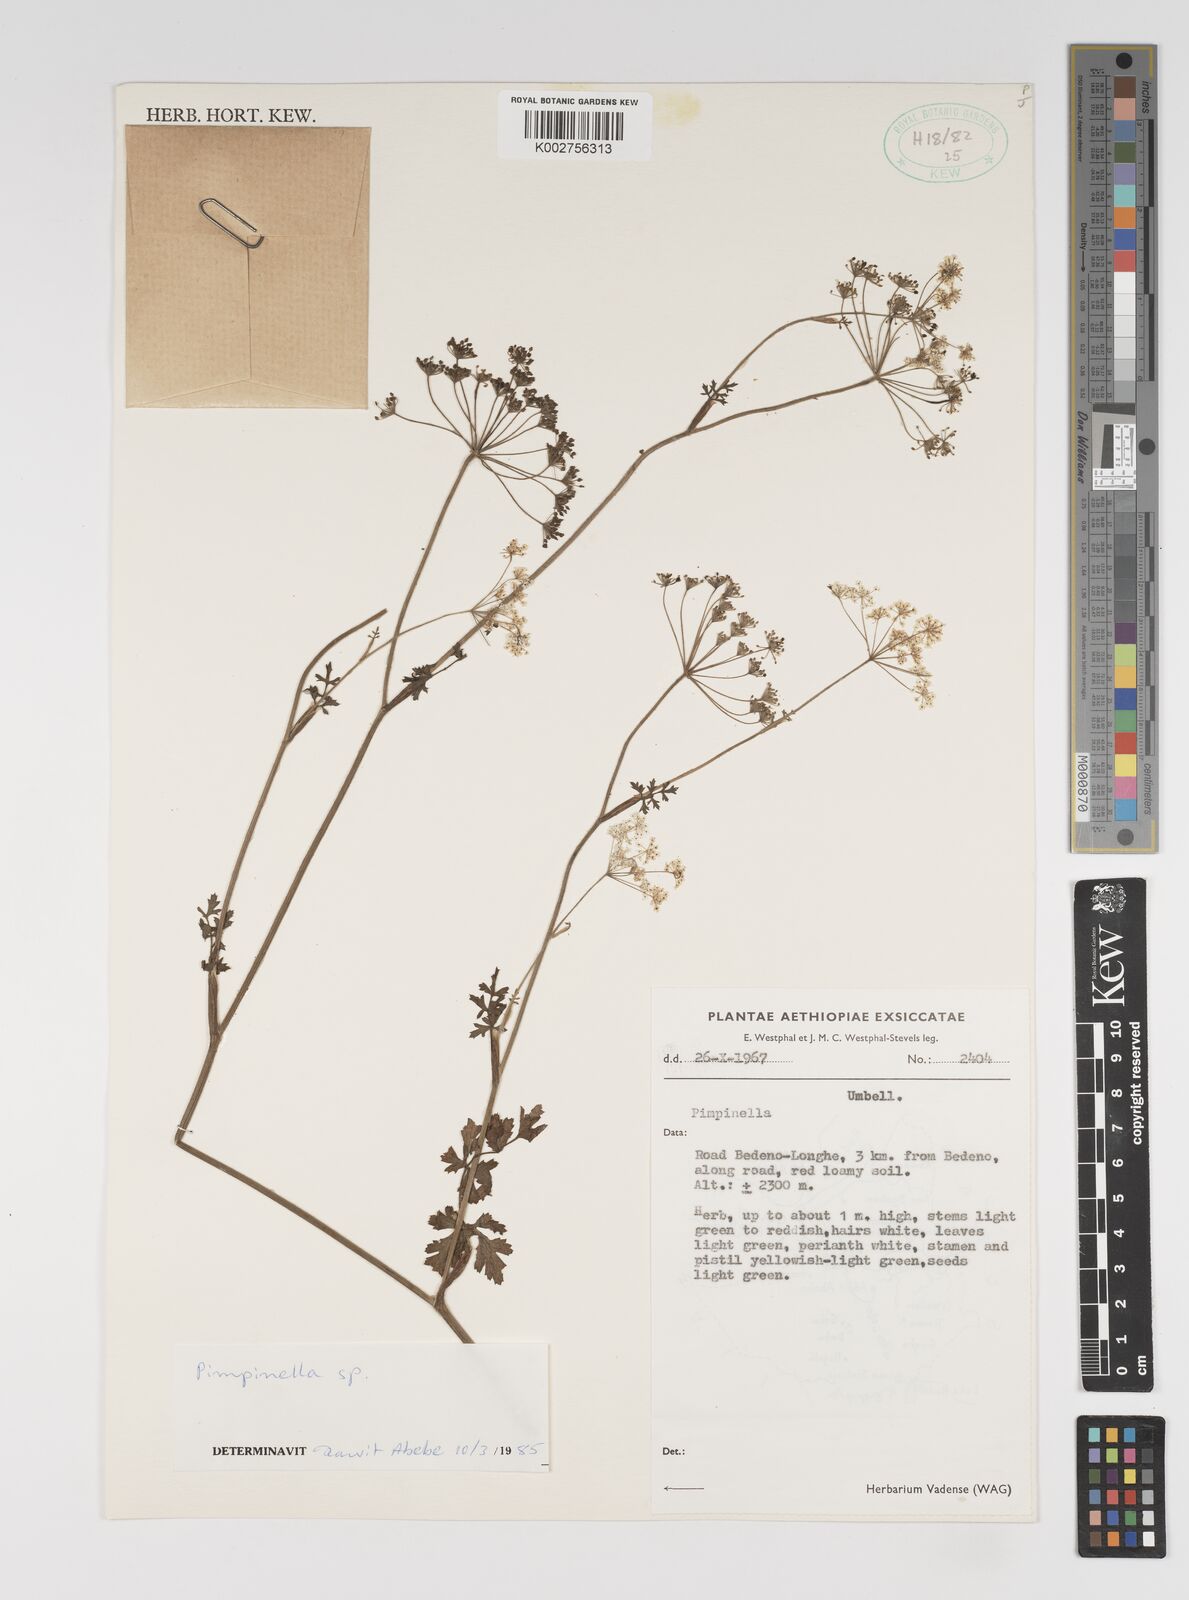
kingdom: Plantae
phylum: Tracheophyta
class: Magnoliopsida
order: Apiales
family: Apiaceae
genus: Pimpinella
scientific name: Pimpinella peregrina
